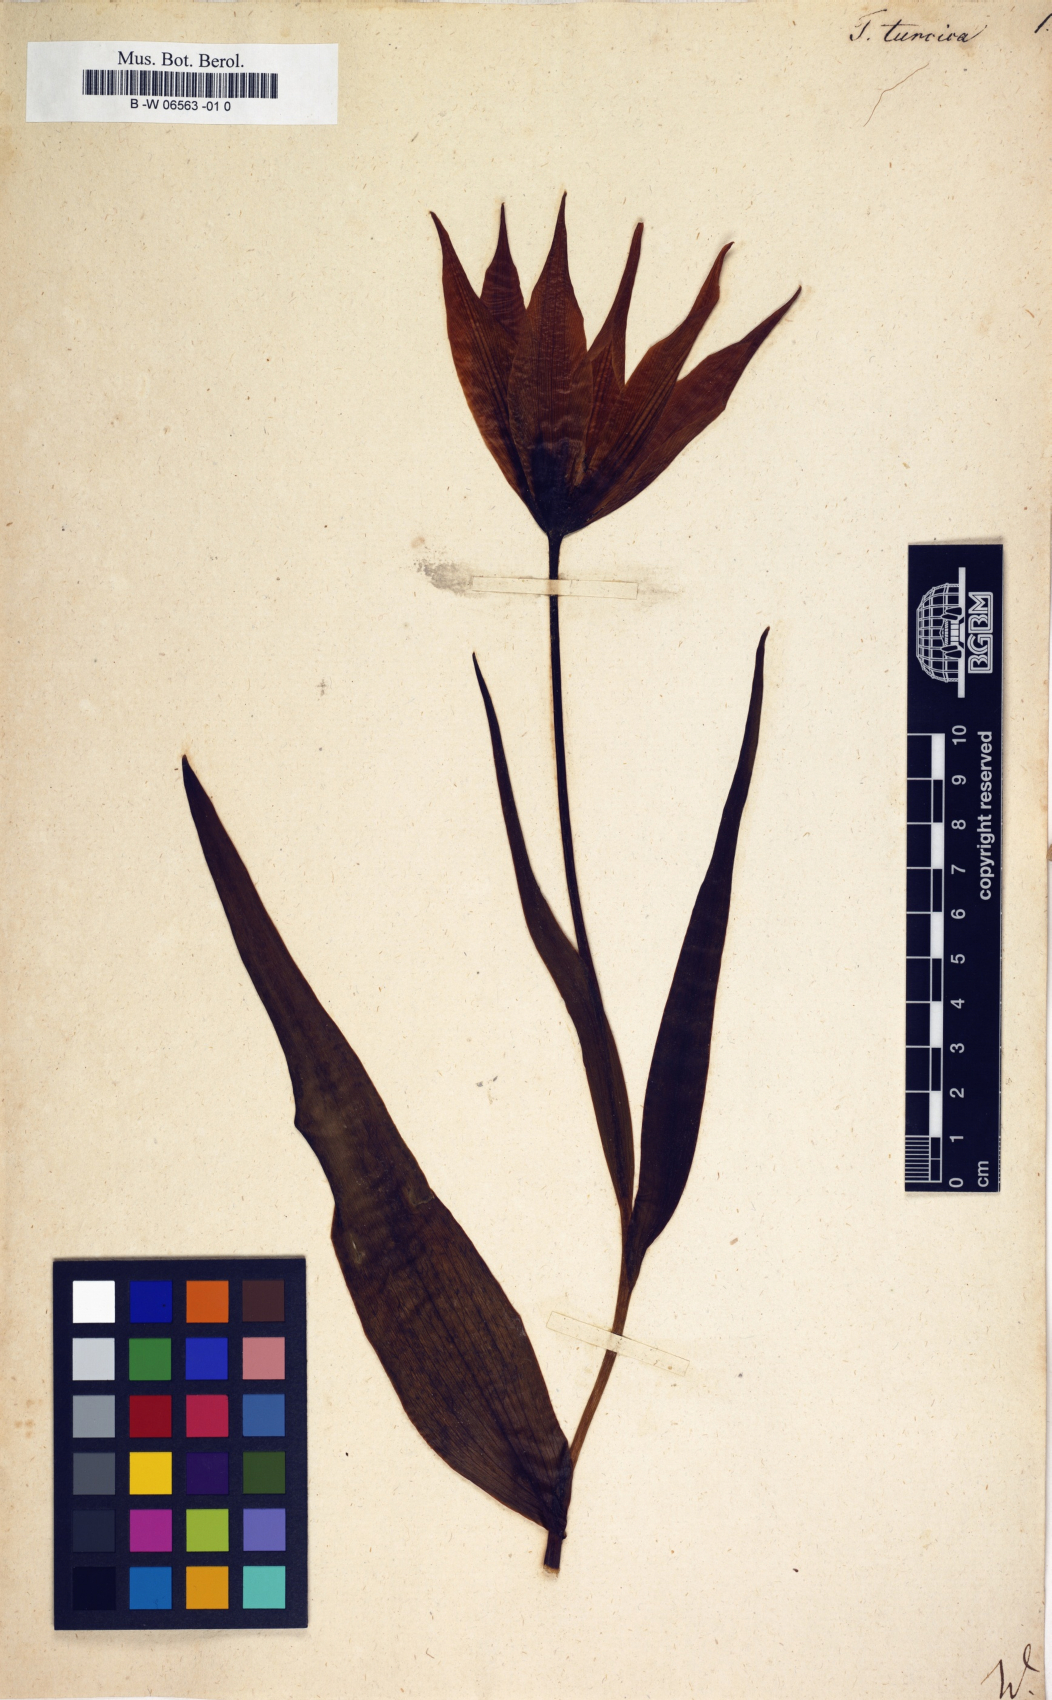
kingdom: Plantae
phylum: Tracheophyta
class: Liliopsida
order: Liliales
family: Liliaceae
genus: Tulipa
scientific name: Tulipa turcica
